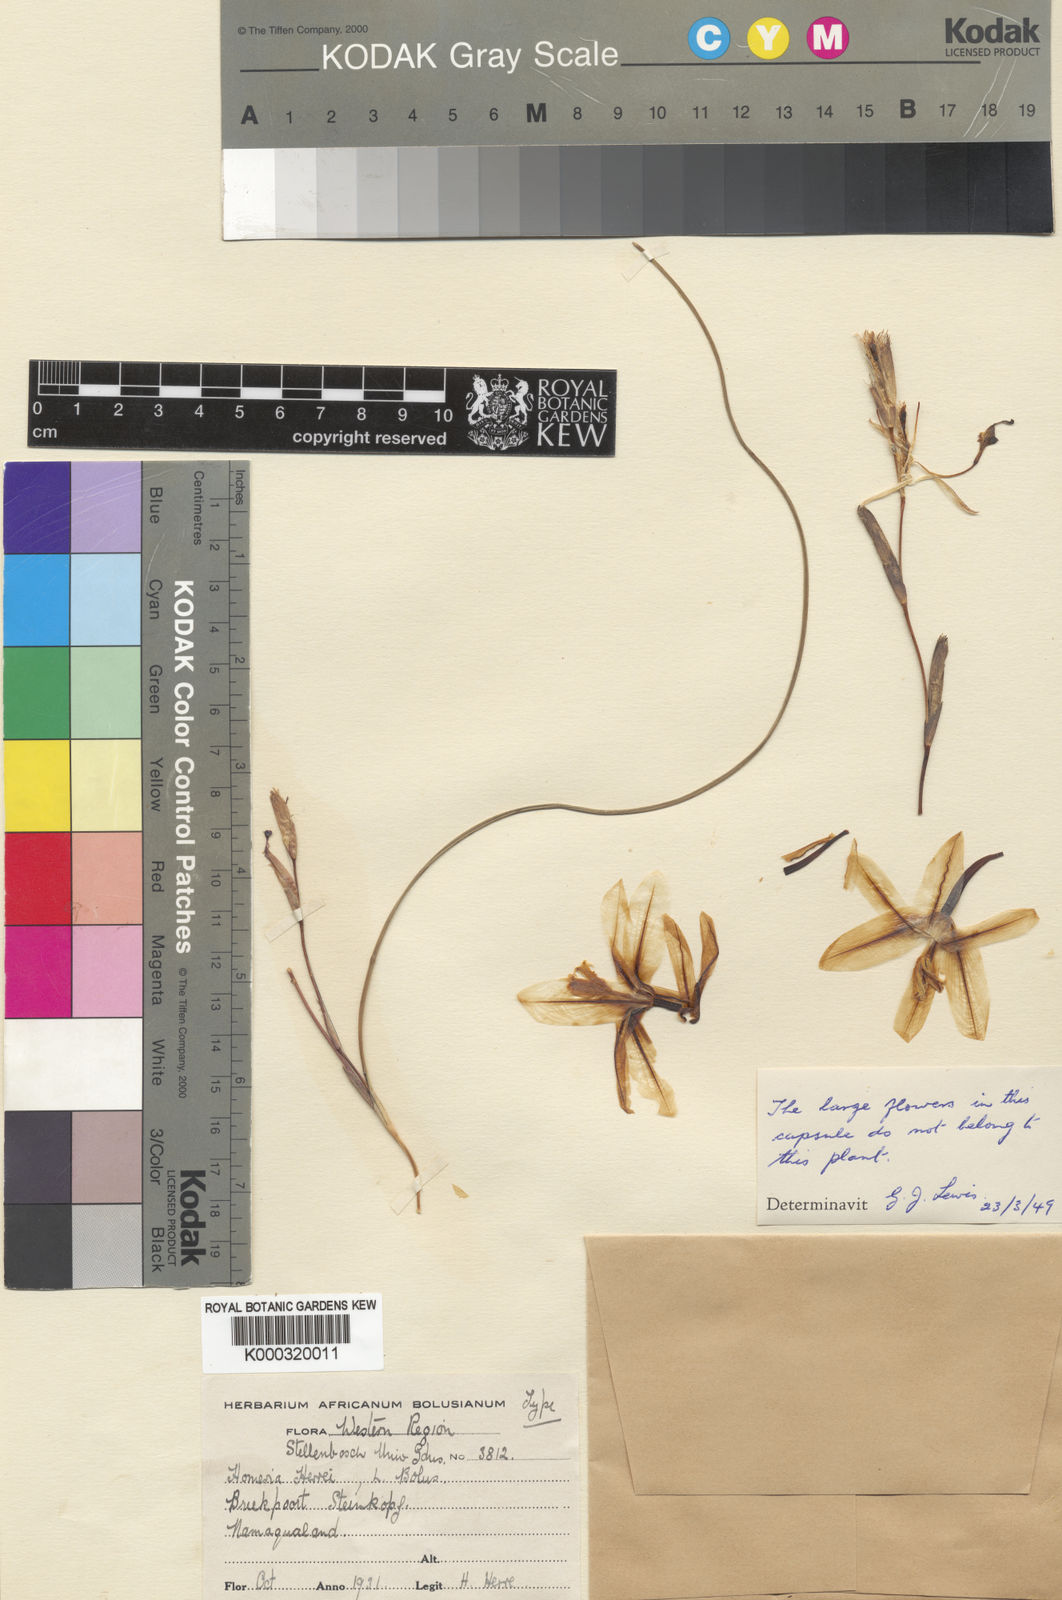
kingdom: Plantae
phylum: Tracheophyta
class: Liliopsida
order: Asparagales
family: Iridaceae
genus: Moraea
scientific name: Moraea herrei
